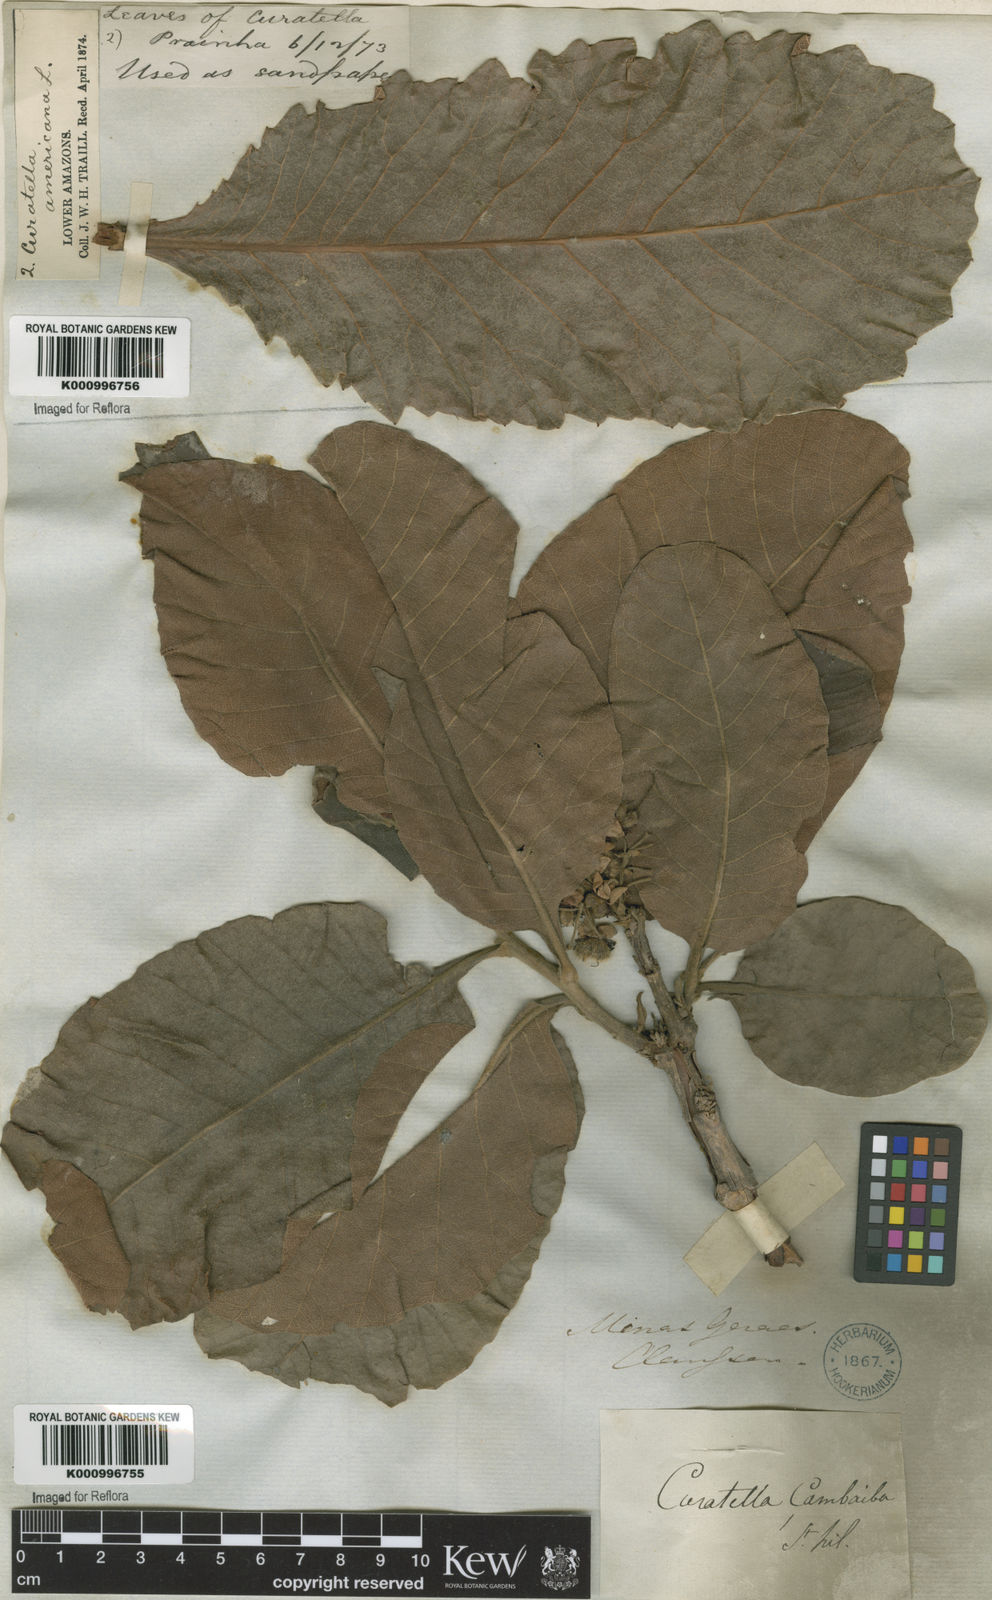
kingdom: Plantae
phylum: Tracheophyta
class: Magnoliopsida
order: Dilleniales
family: Dilleniaceae
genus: Curatella
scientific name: Curatella americana
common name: Sandpaper tree
